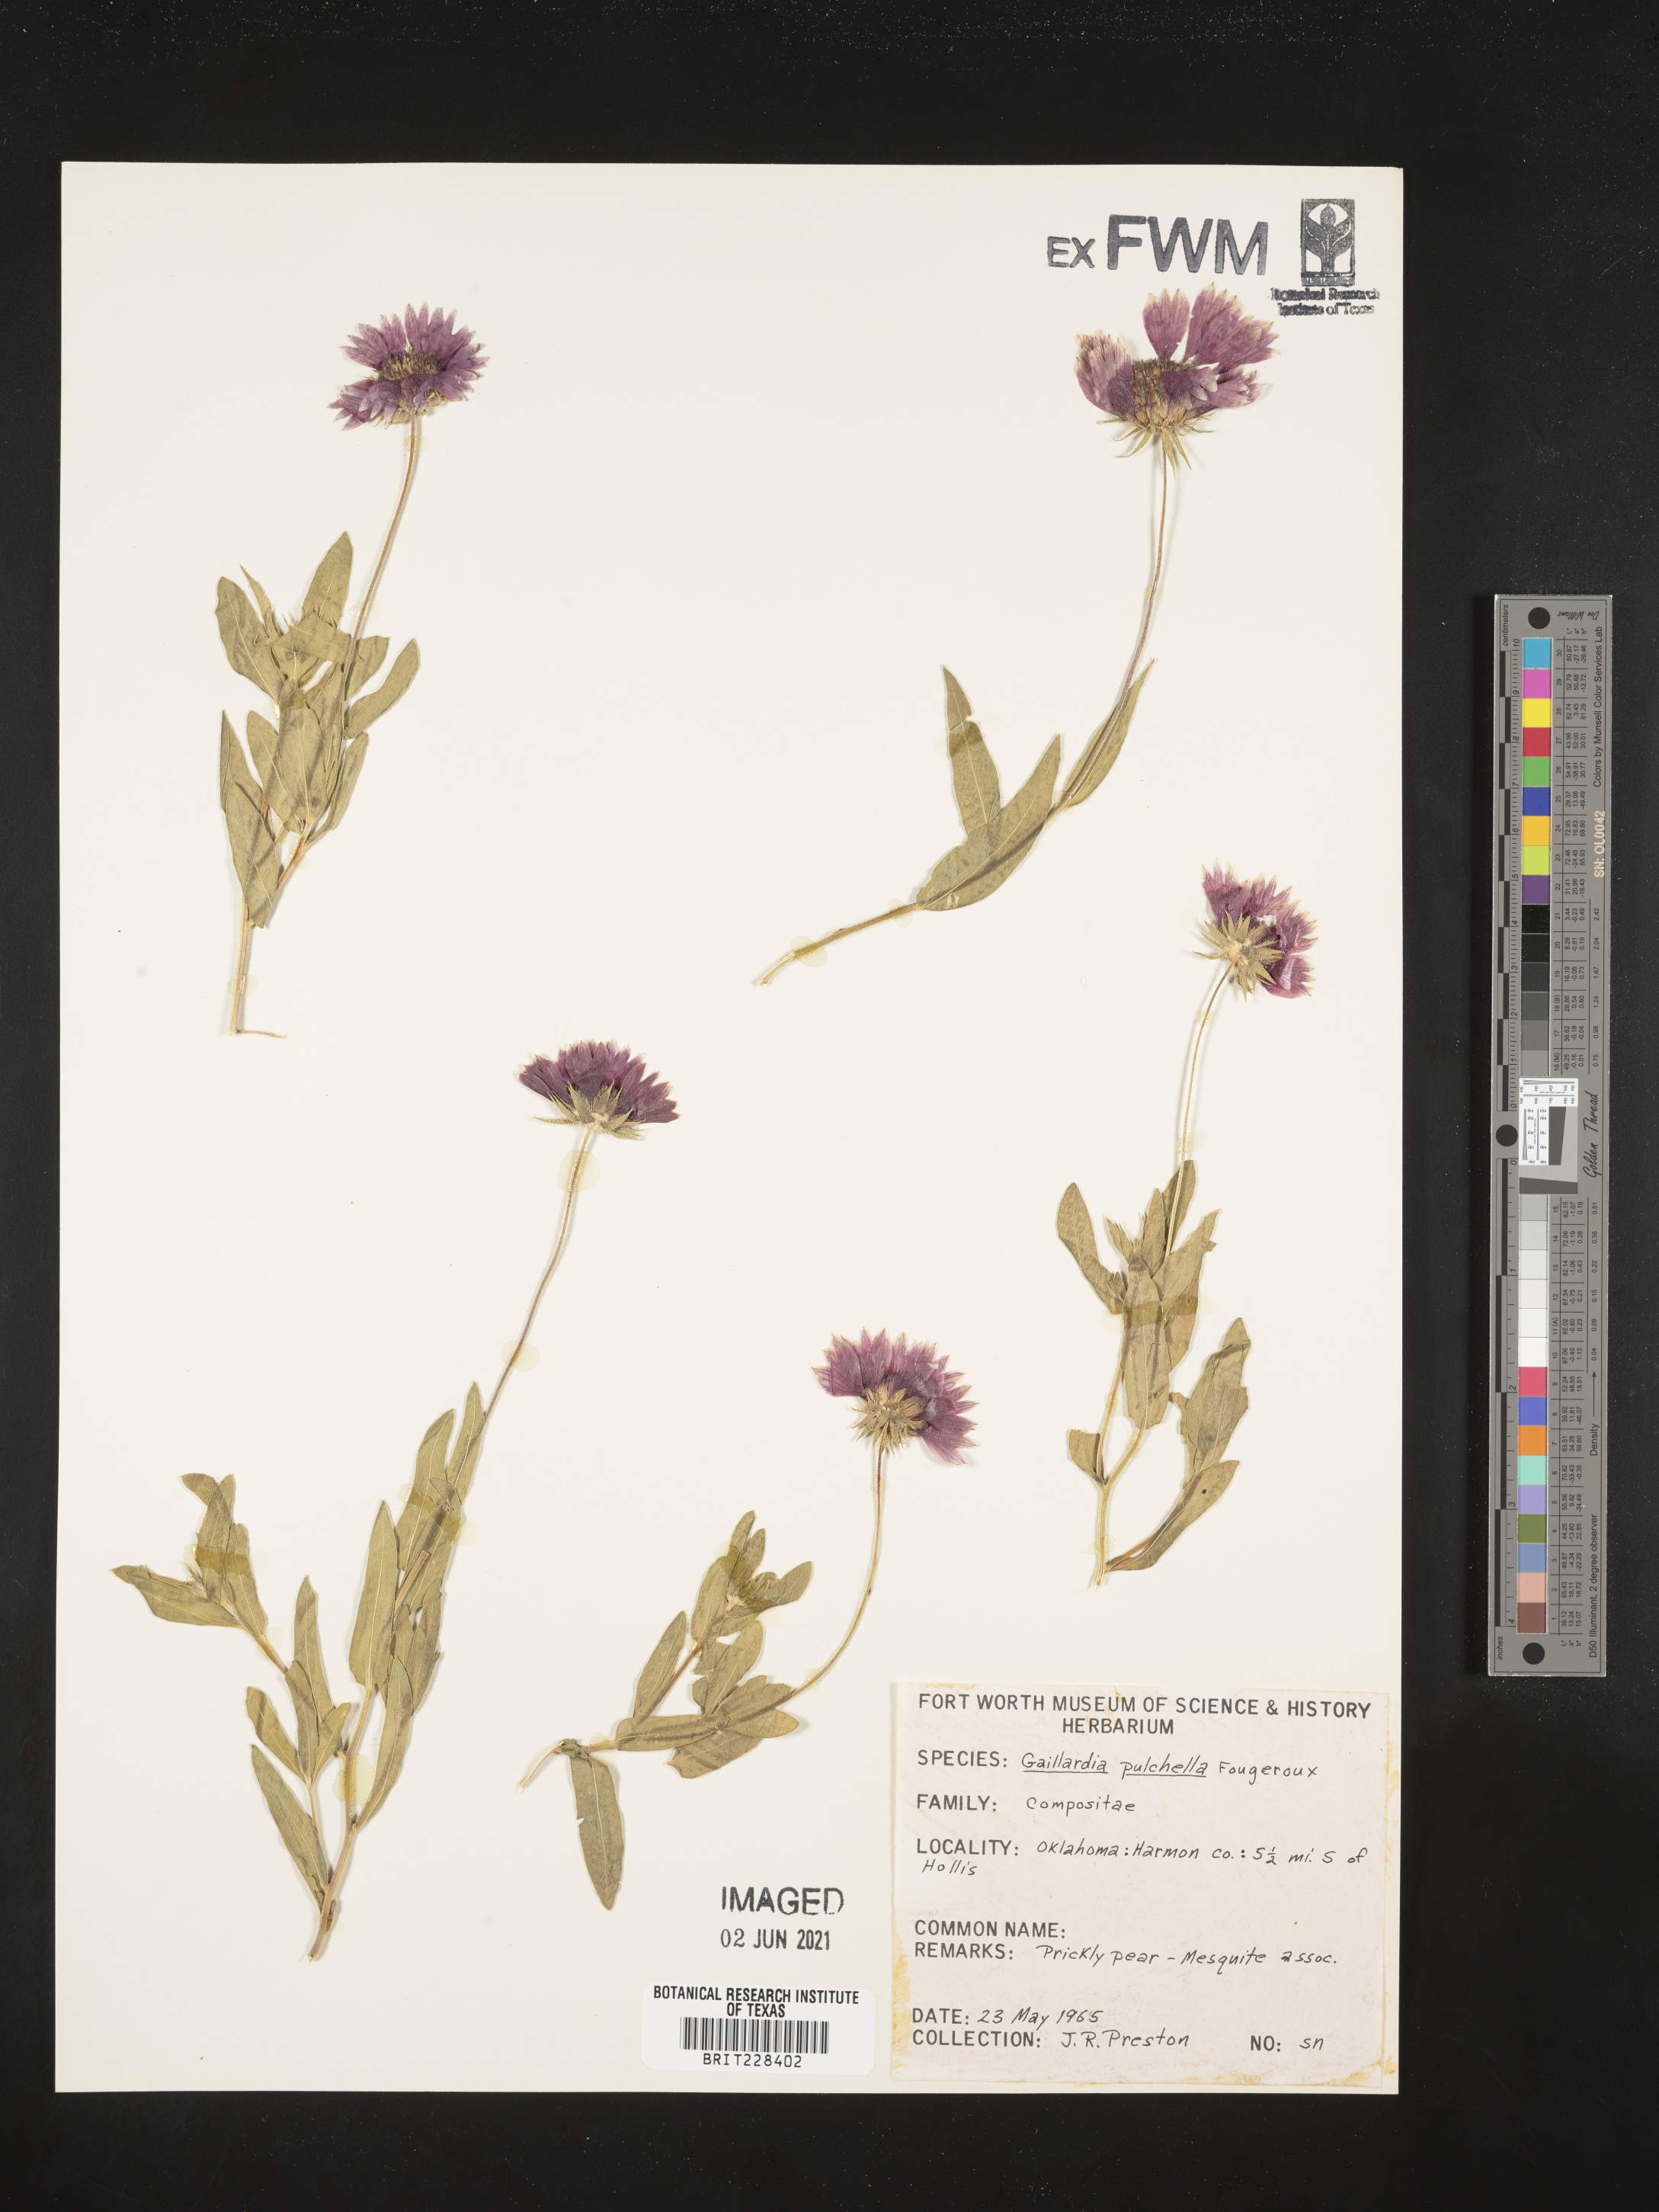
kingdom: Plantae
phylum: Tracheophyta
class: Magnoliopsida
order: Asterales
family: Asteraceae
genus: Gaillardia
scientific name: Gaillardia pulchella
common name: Firewheel
